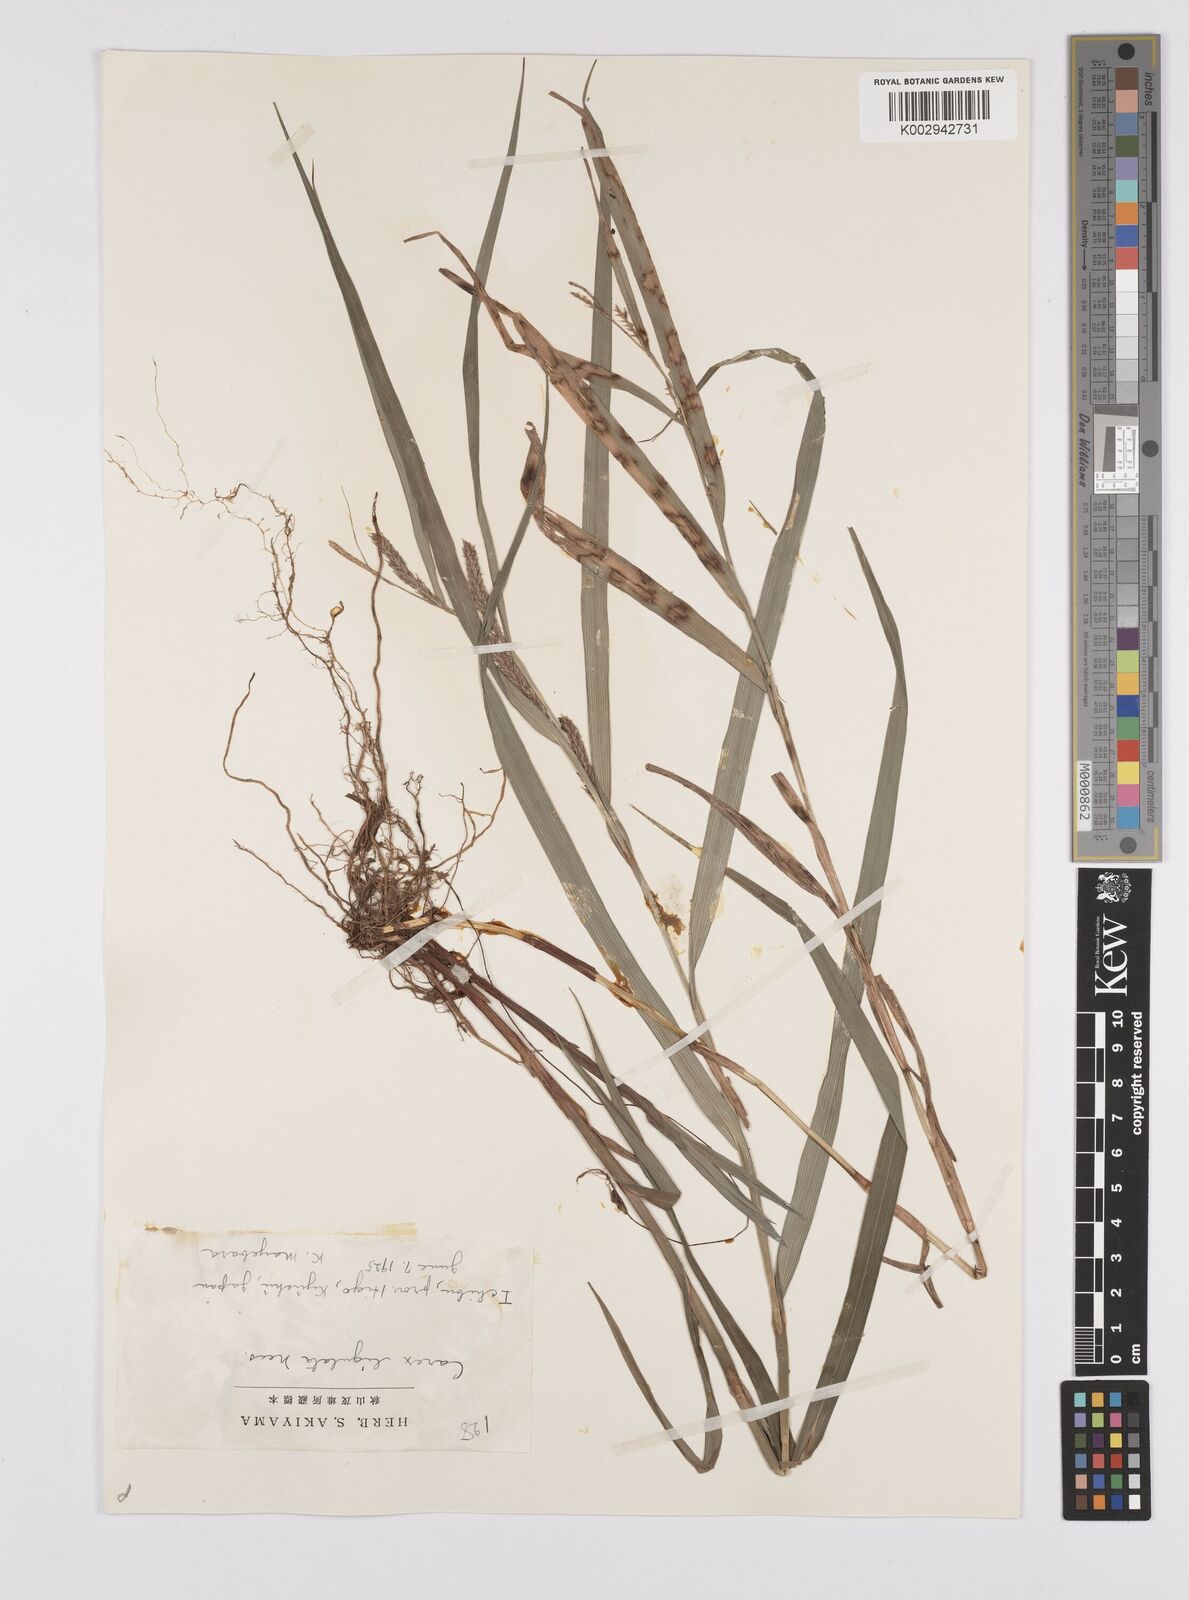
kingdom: Plantae
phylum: Tracheophyta
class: Liliopsida
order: Poales
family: Cyperaceae
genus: Carex
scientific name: Carex ligulata
